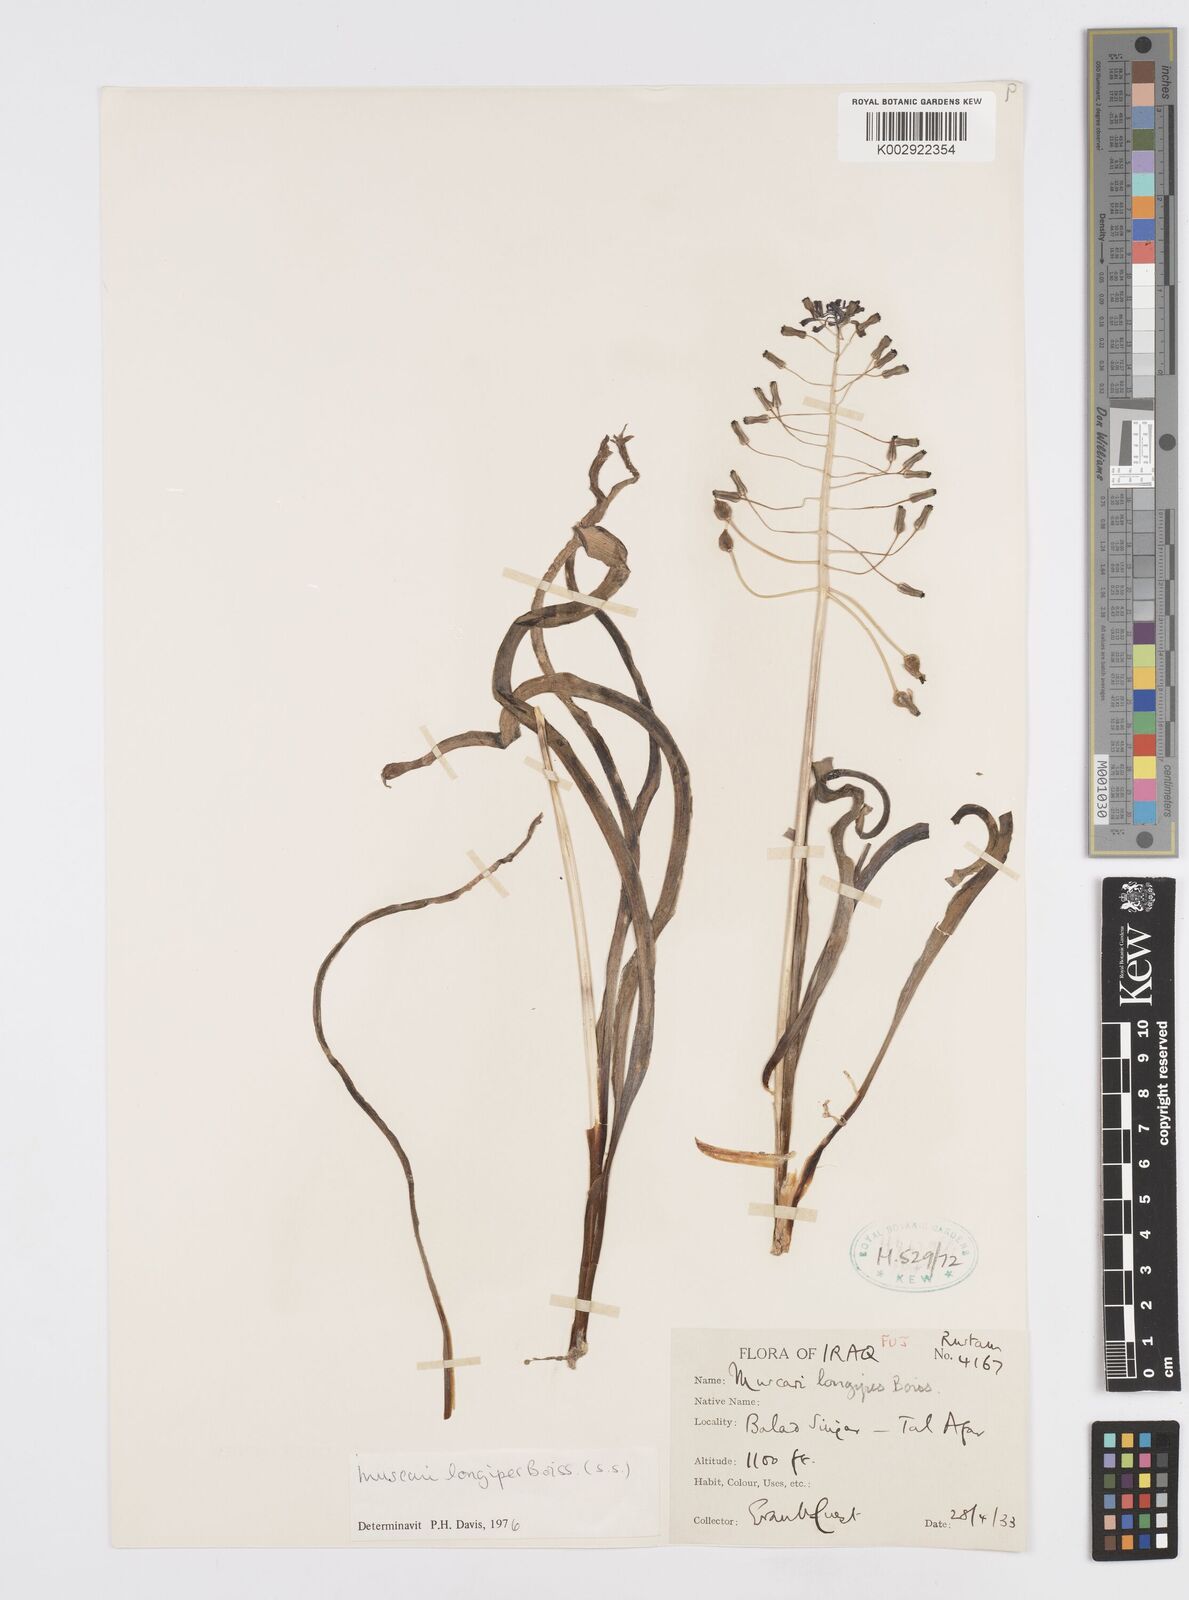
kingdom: Plantae
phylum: Tracheophyta
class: Liliopsida
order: Asparagales
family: Asparagaceae
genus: Muscari
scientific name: Muscari longipes
